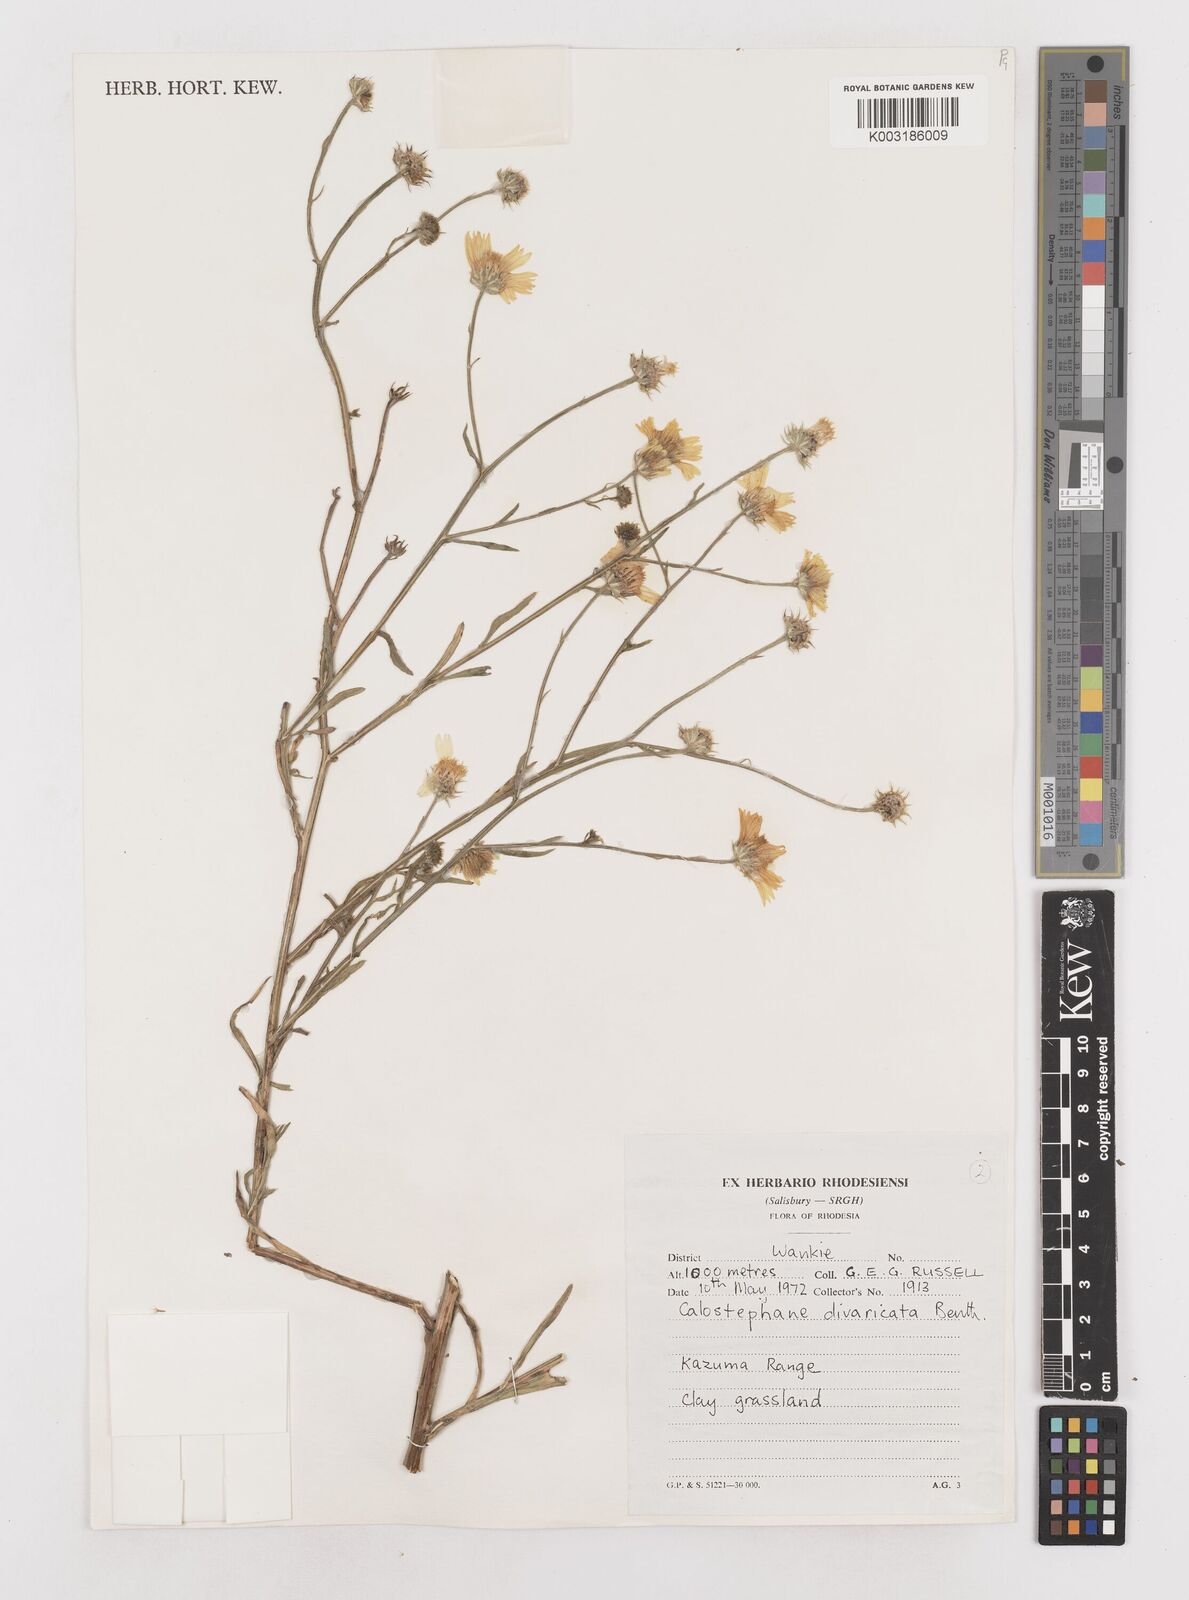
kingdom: Plantae
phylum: Tracheophyta
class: Magnoliopsida
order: Asterales
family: Asteraceae
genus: Calostephane
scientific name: Calostephane divaricata
